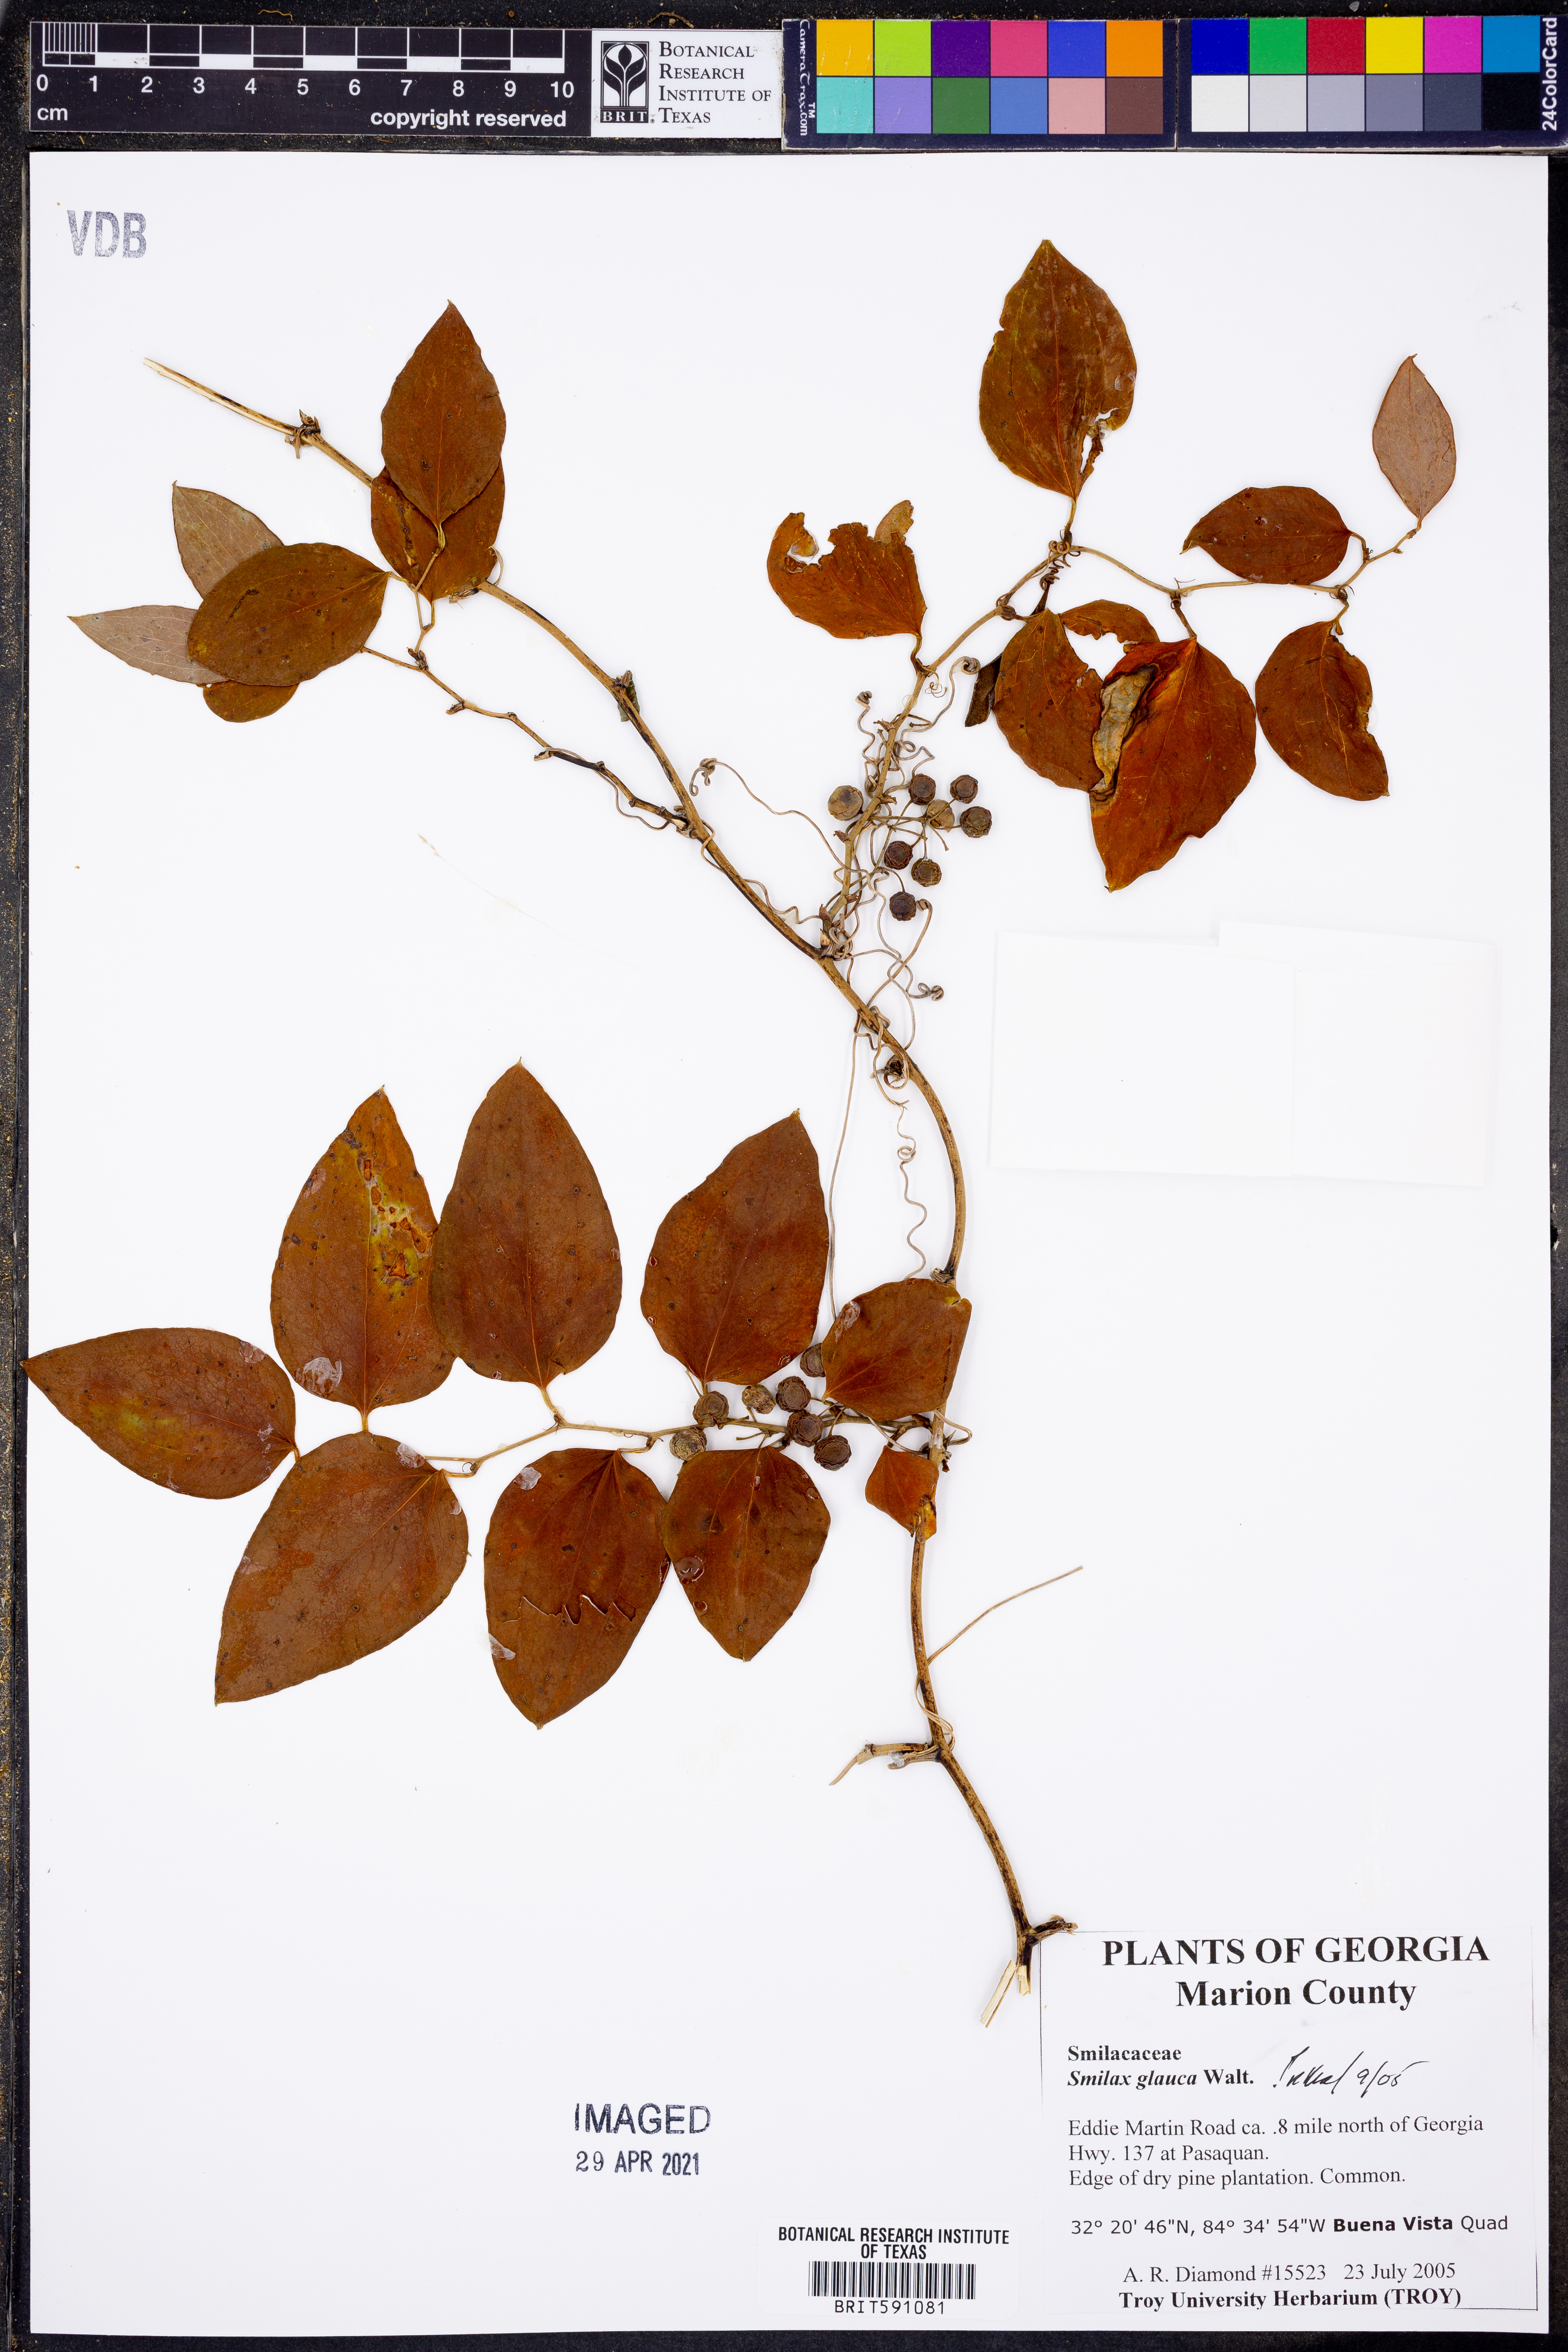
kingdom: Plantae
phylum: Tracheophyta
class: Liliopsida
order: Liliales
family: Smilacaceae
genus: Smilax
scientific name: Smilax glauca
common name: Cat greenbrier
